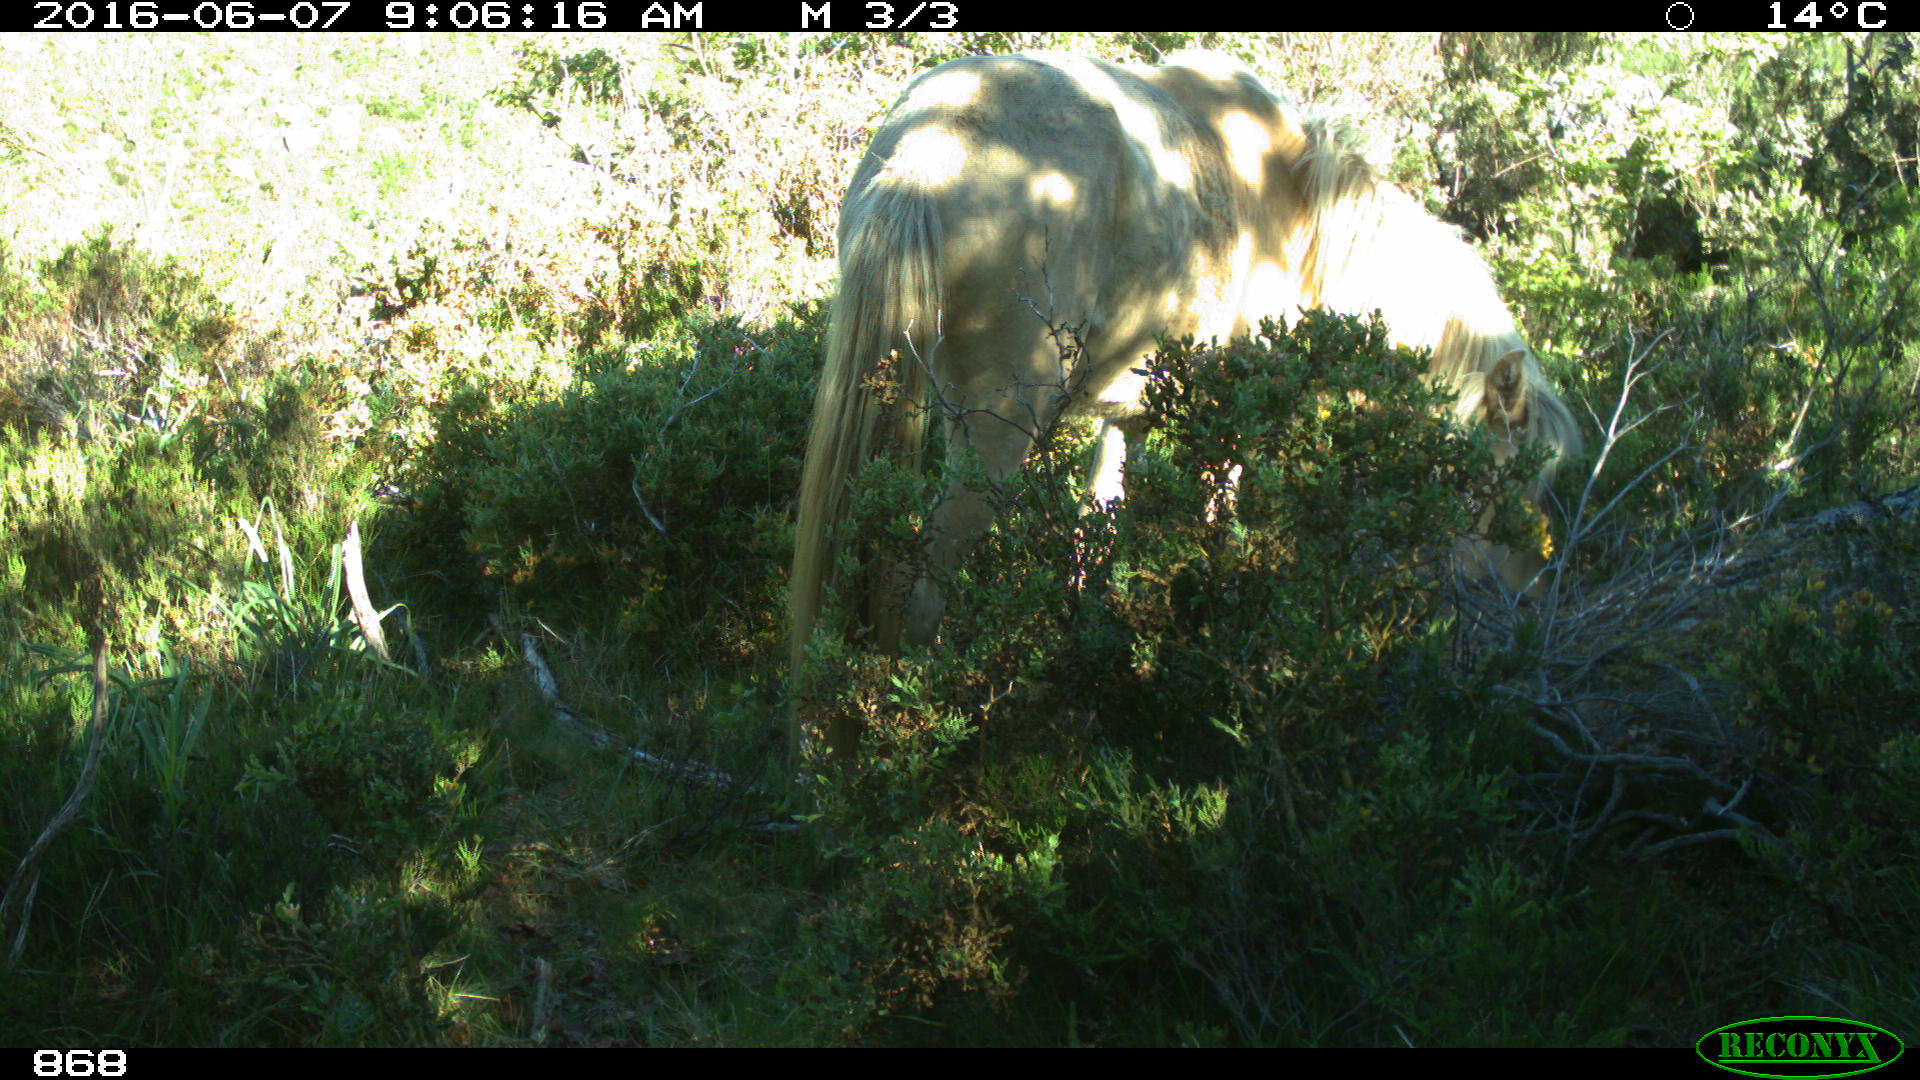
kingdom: Animalia
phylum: Chordata
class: Mammalia
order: Perissodactyla
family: Equidae
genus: Equus
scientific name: Equus caballus
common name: Horse
